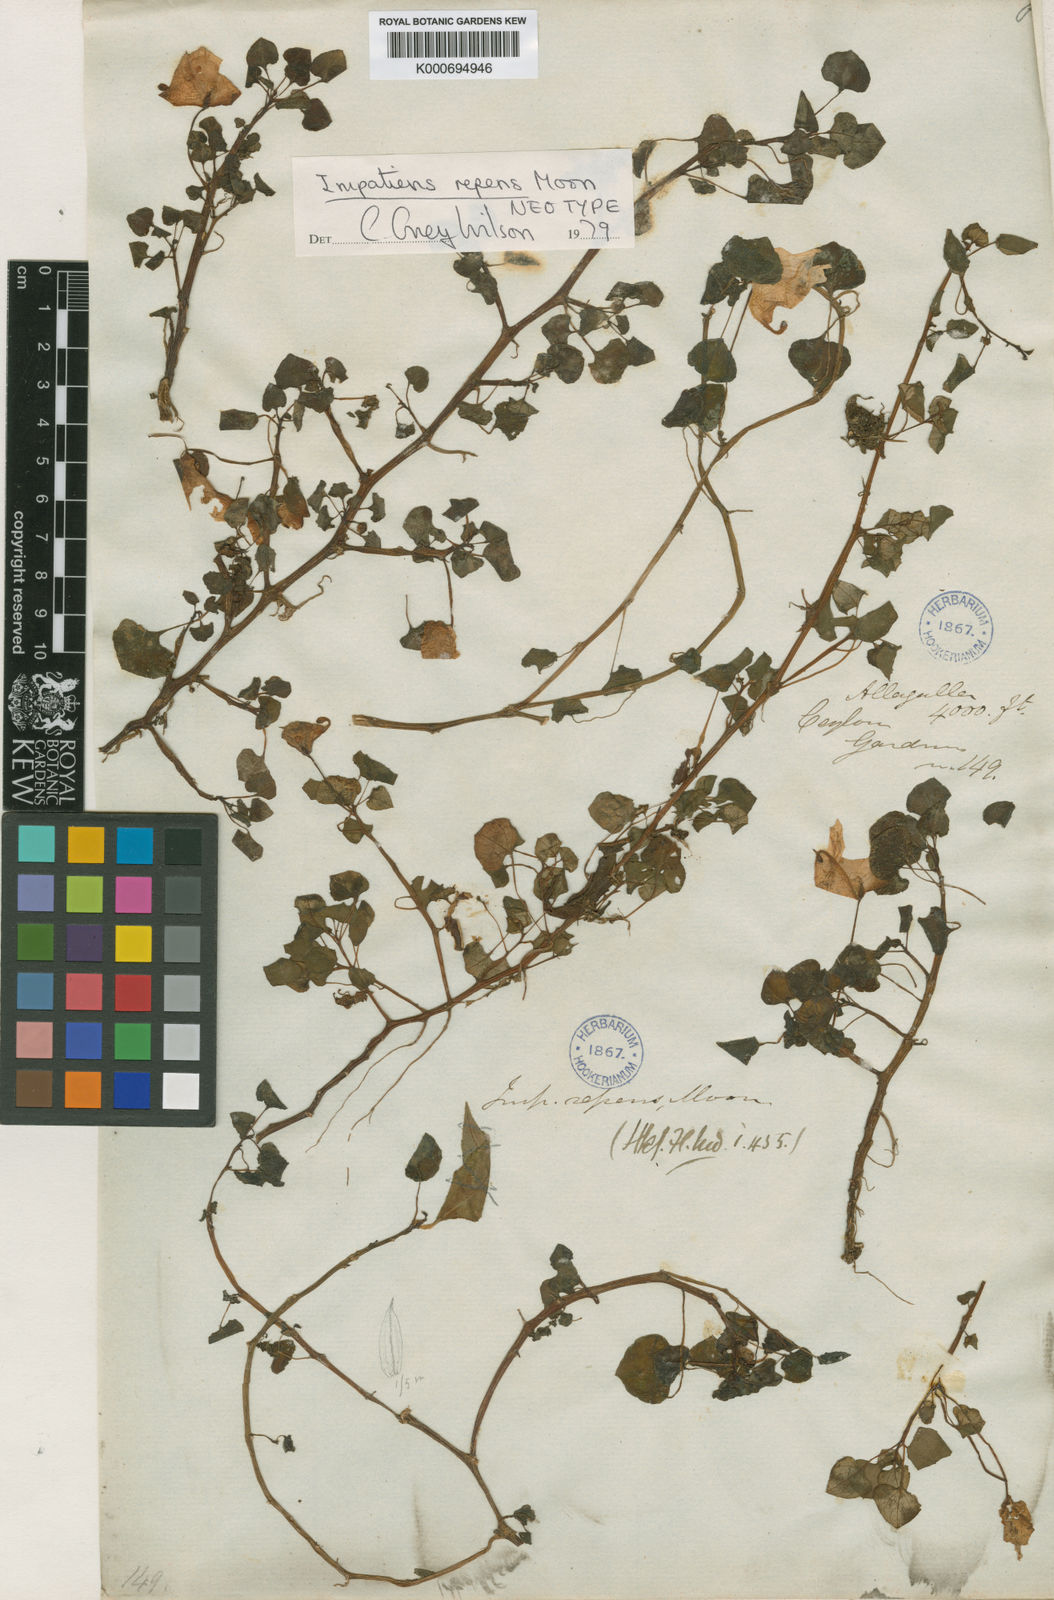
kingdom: Plantae
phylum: Tracheophyta
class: Magnoliopsida
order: Ericales
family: Balsaminaceae
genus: Impatiens
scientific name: Impatiens
